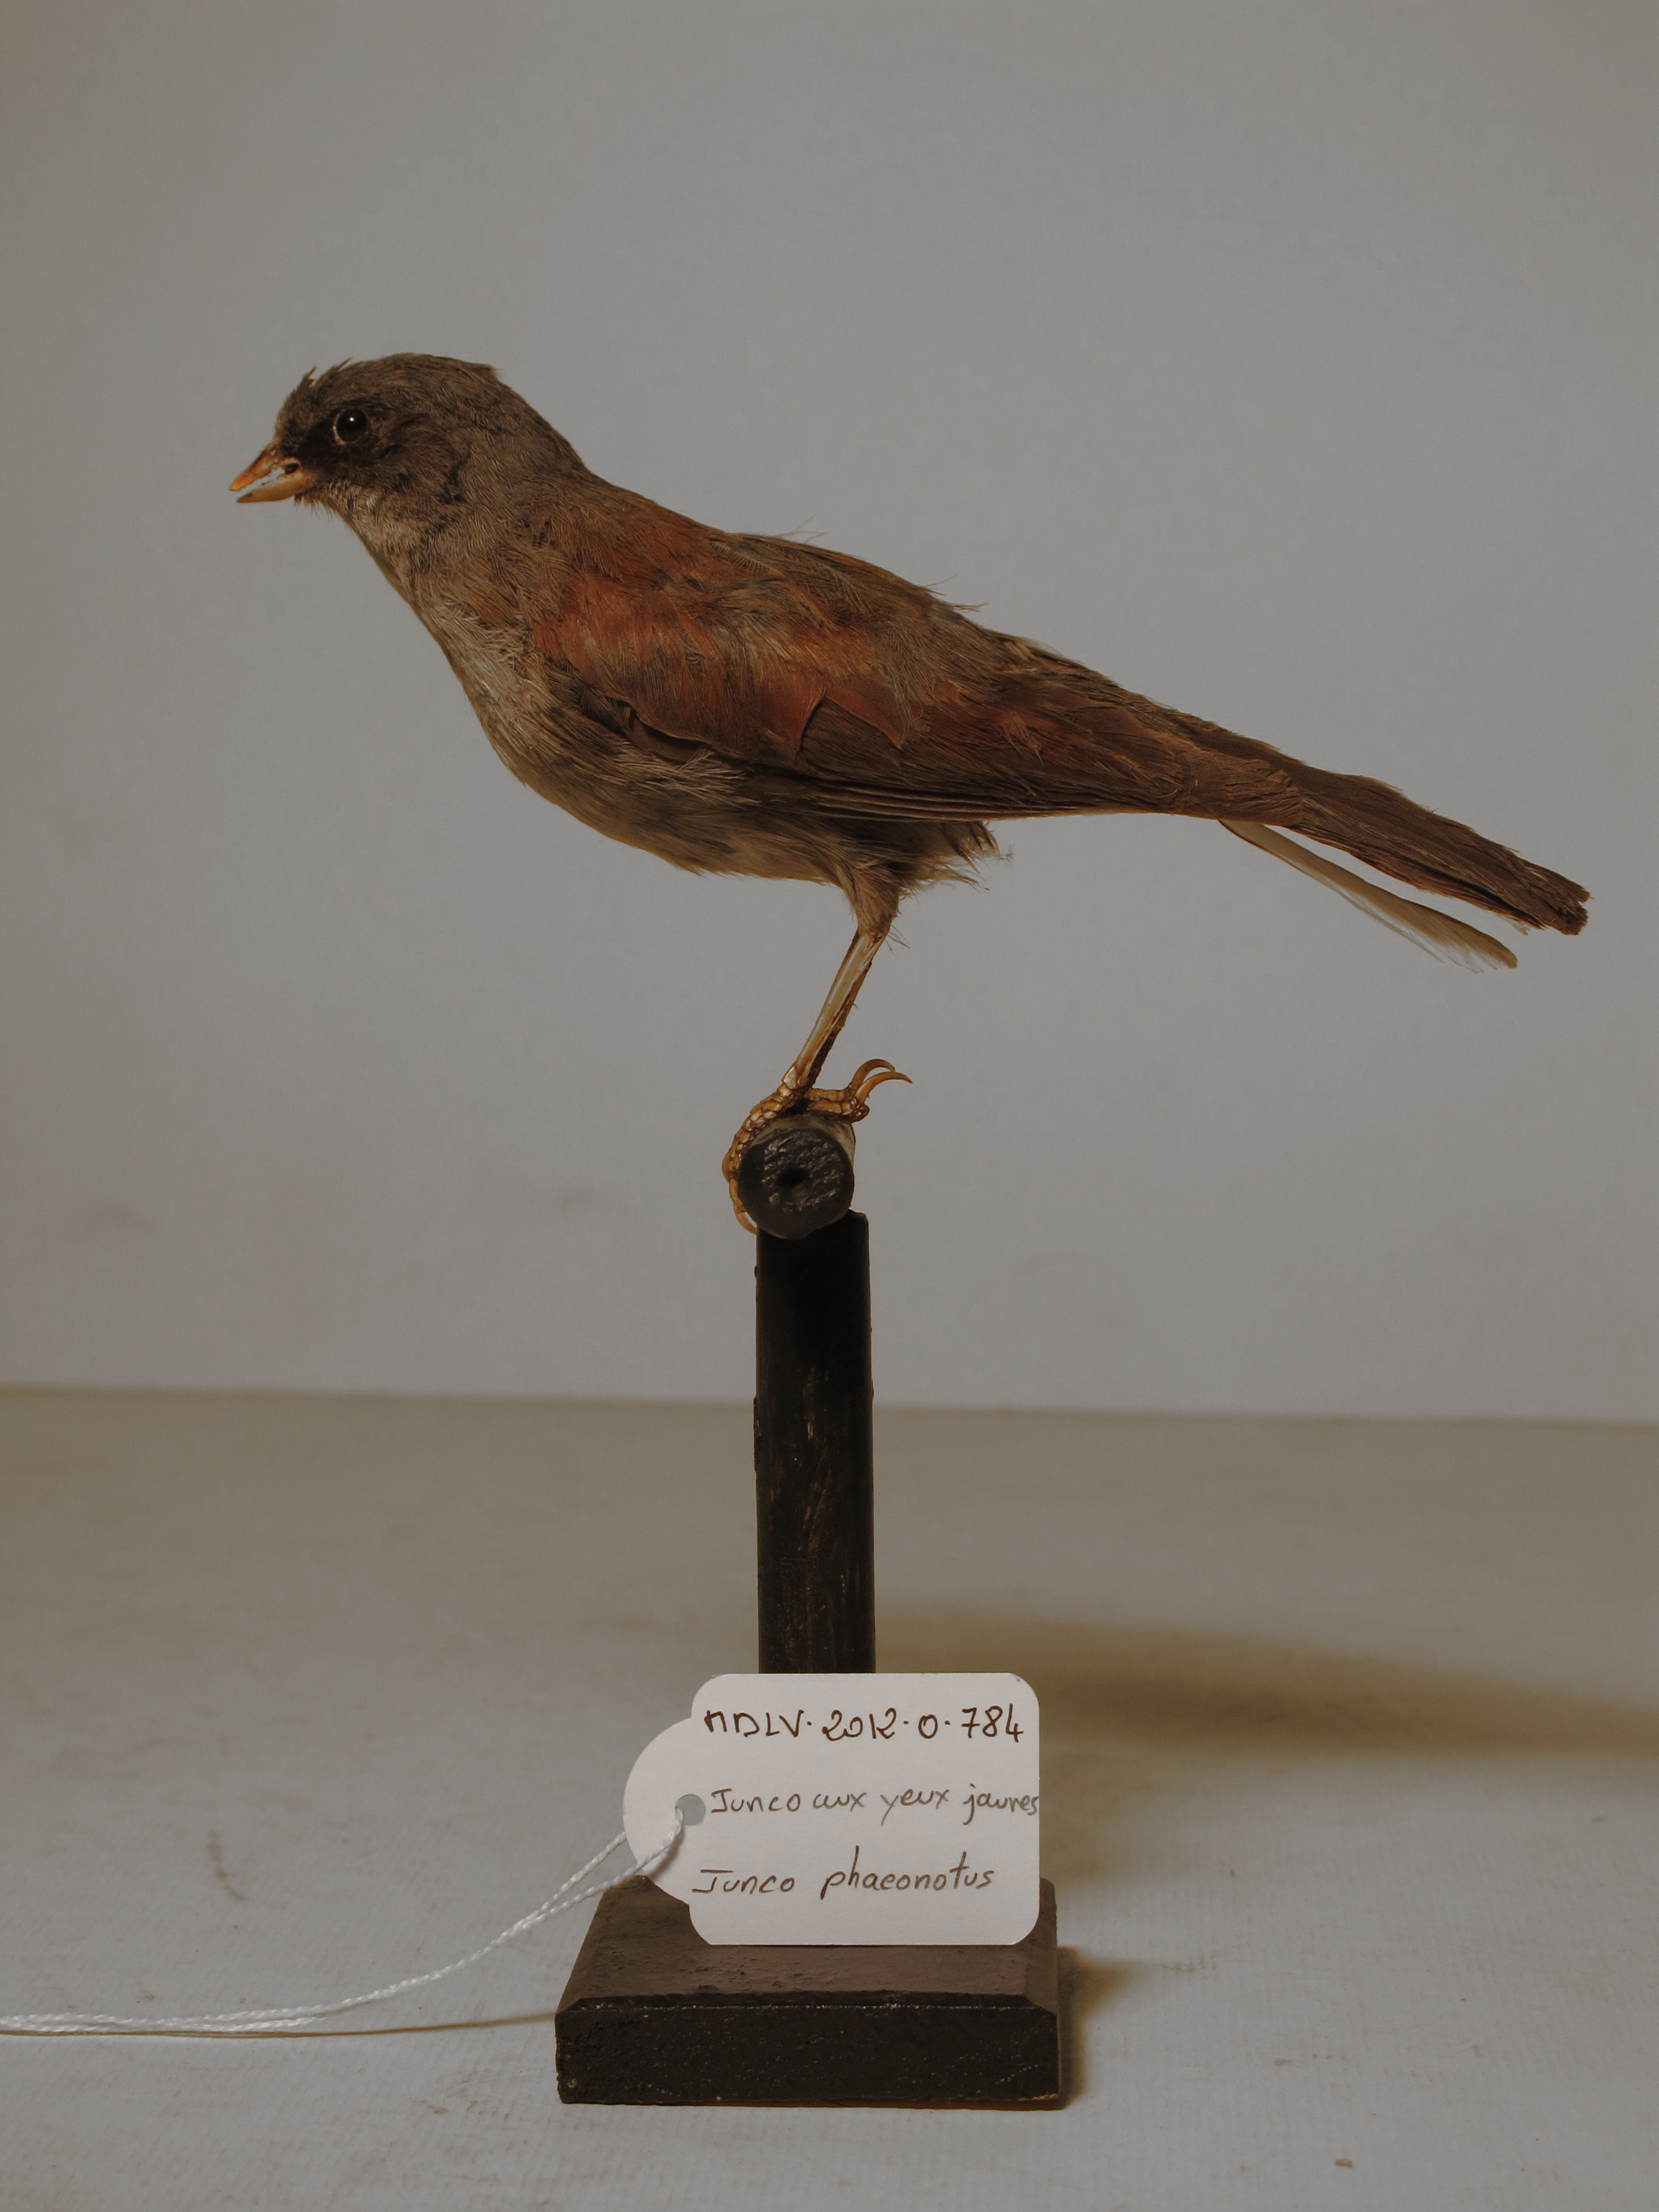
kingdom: Animalia
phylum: Chordata
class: Aves
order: Passeriformes
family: Passerellidae
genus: Junco
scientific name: Junco phaeonotus
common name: Yellow-eyed Junco
